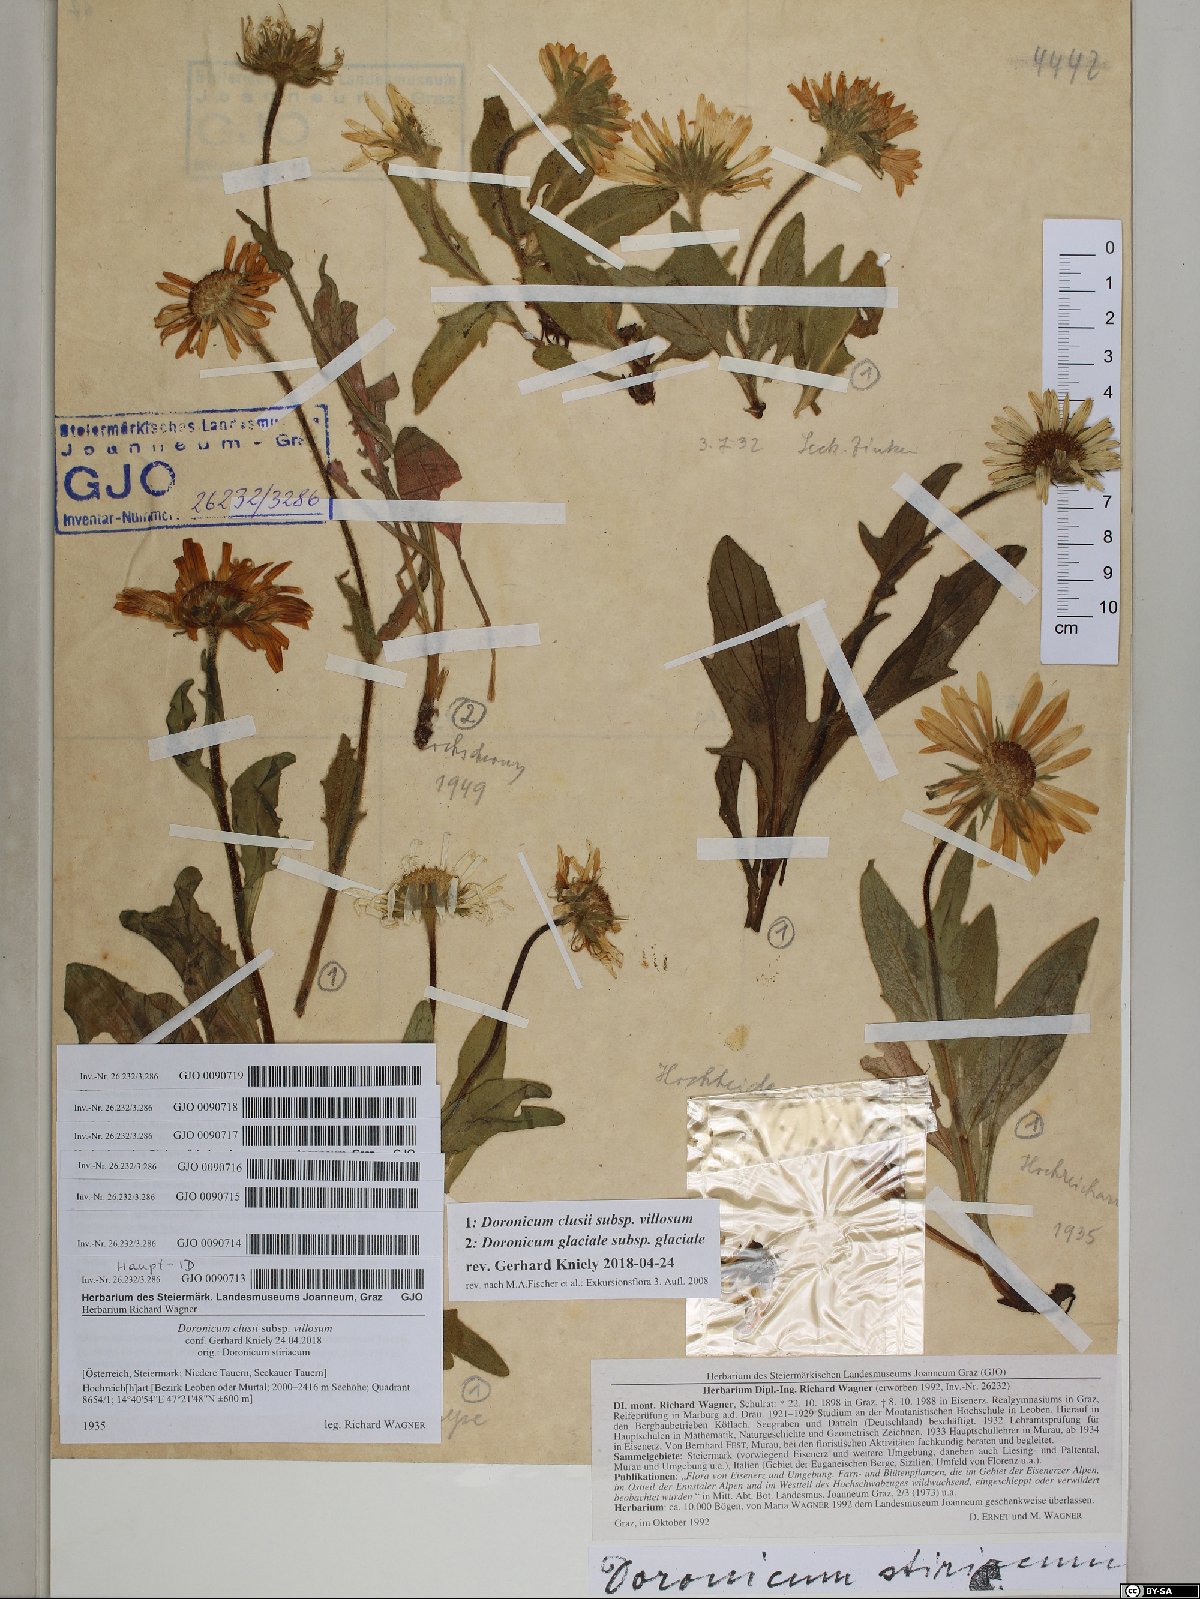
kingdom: Plantae
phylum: Tracheophyta
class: Magnoliopsida
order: Asterales
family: Asteraceae
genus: Doronicum
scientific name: Doronicum glaciale
